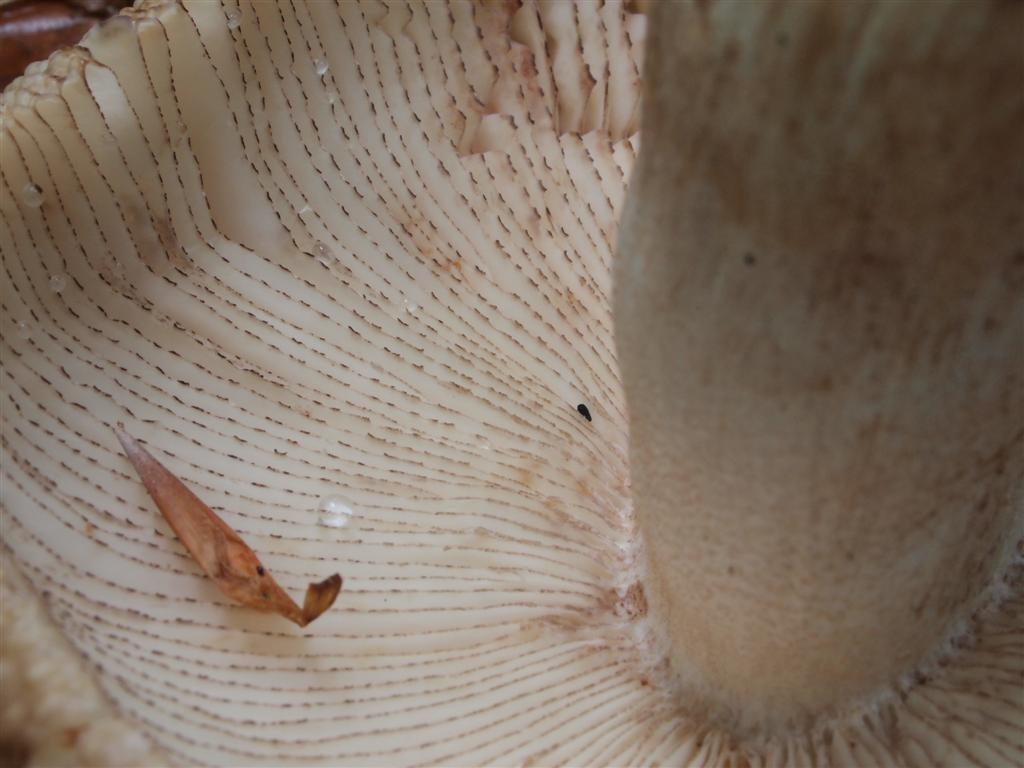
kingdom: Fungi
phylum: Basidiomycota
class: Agaricomycetes
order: Russulales
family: Russulaceae
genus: Russula
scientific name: Russula illota
